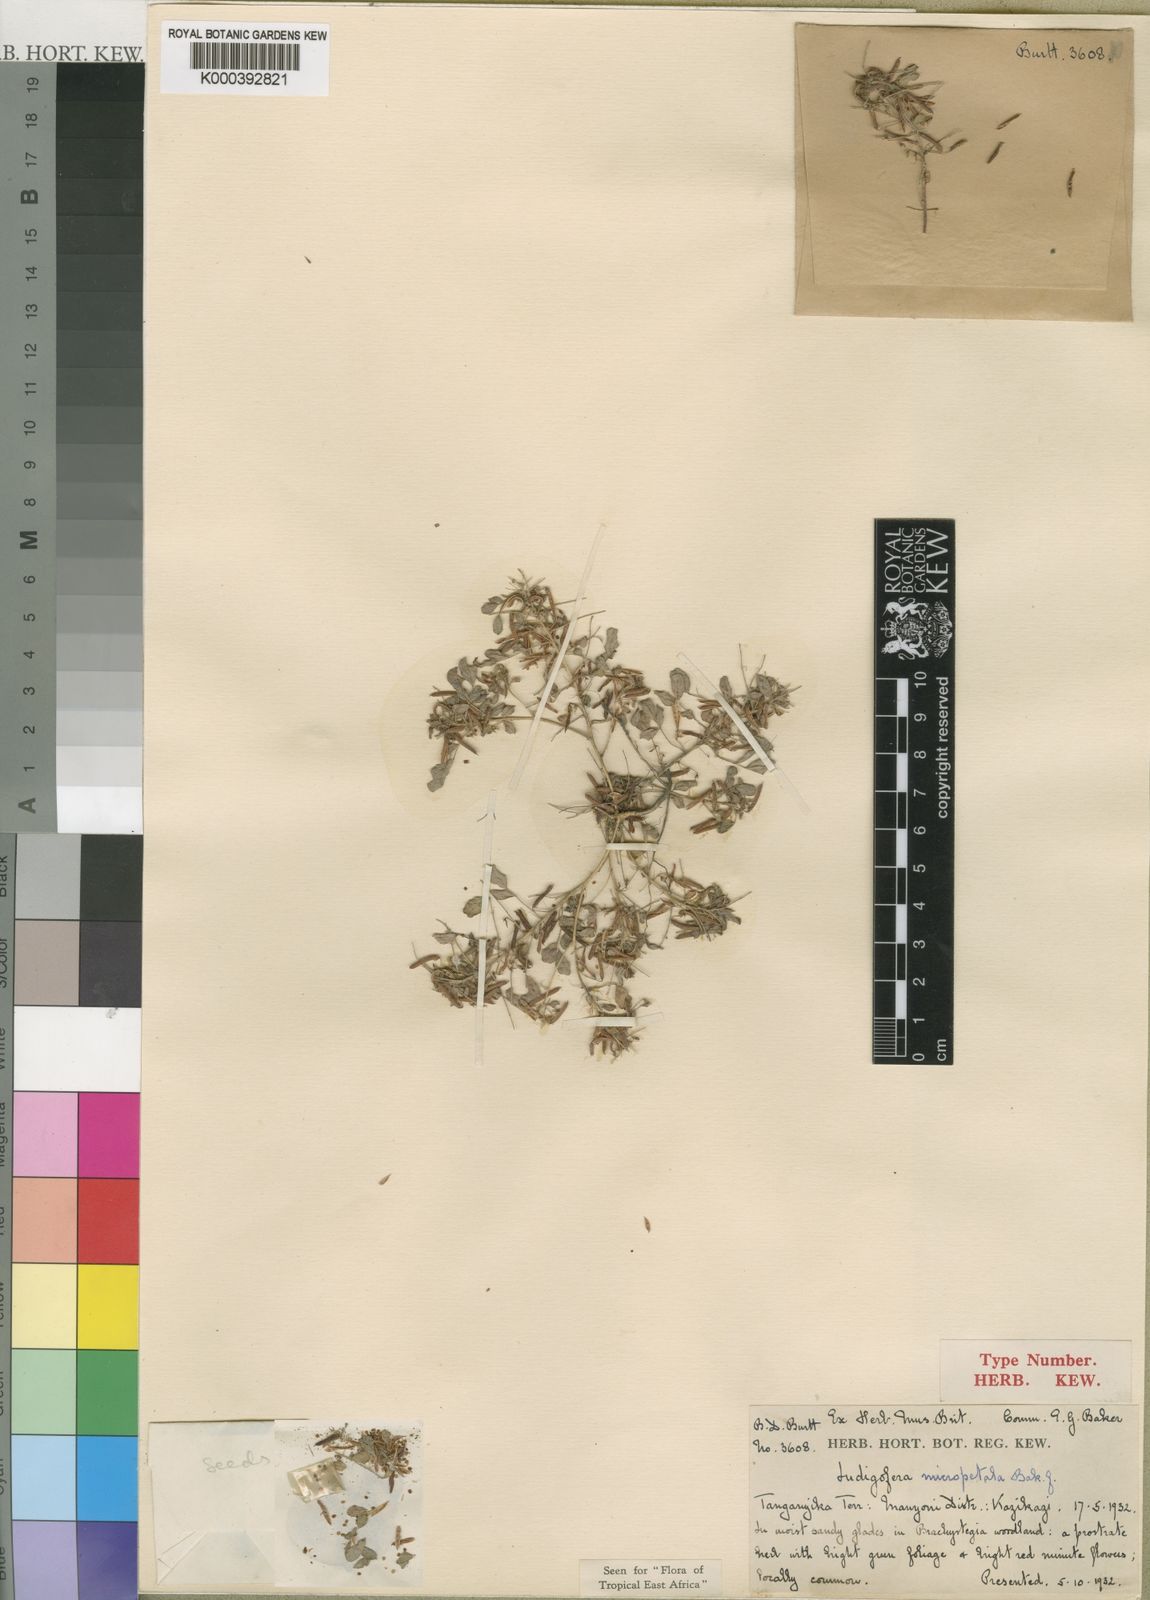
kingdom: Plantae
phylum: Tracheophyta
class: Magnoliopsida
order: Fabales
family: Fabaceae
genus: Indigofera
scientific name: Indigofera micropetala
